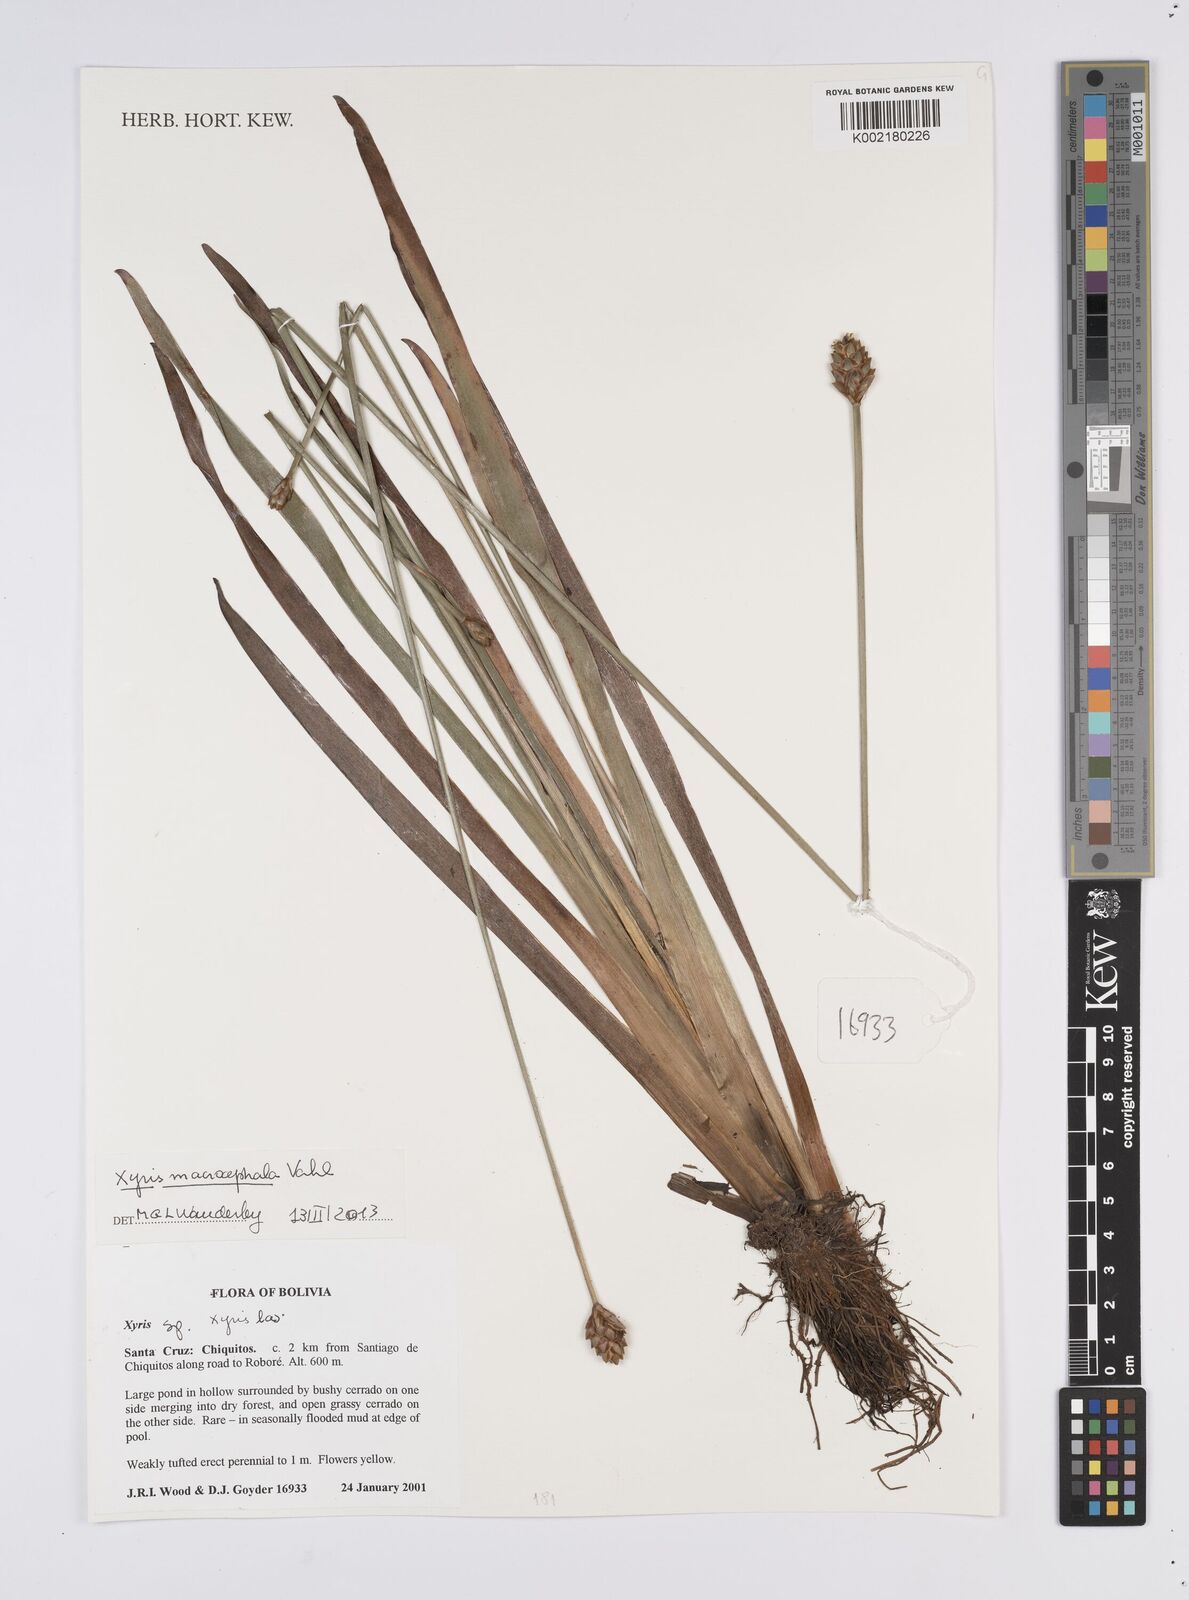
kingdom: Plantae
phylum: Tracheophyta
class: Liliopsida
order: Poales
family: Xyridaceae
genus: Xyris
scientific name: Xyris laxiflora
